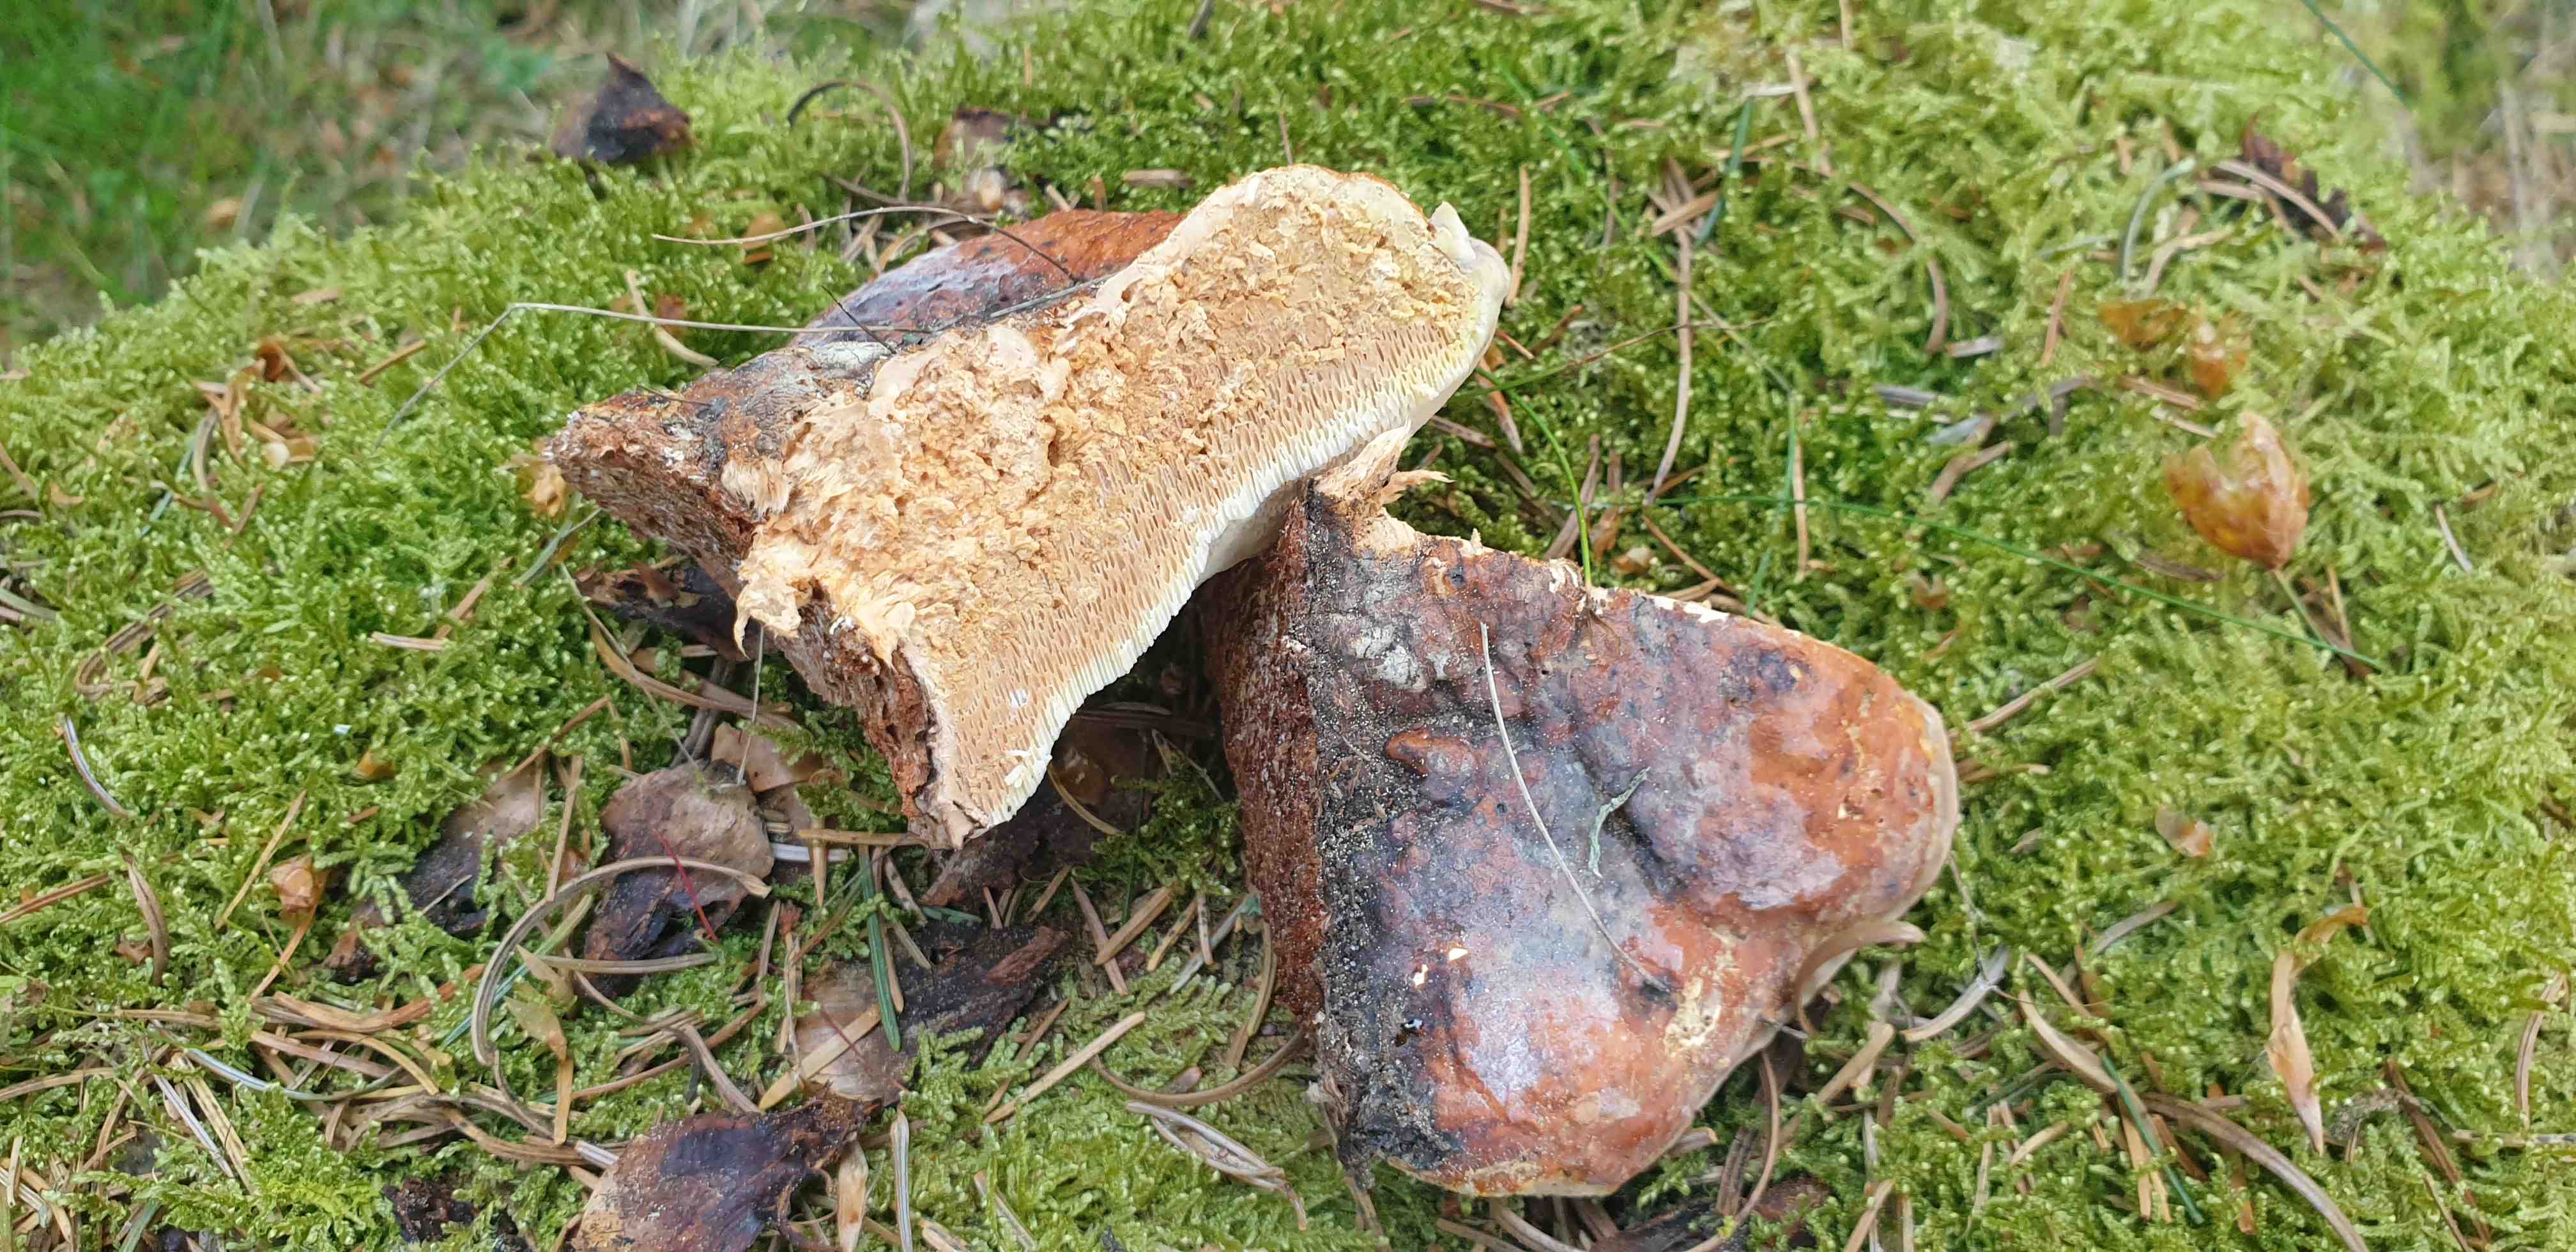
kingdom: Fungi
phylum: Basidiomycota
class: Agaricomycetes
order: Polyporales
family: Fomitopsidaceae
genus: Fomitopsis
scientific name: Fomitopsis pinicola
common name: randbæltet hovporesvamp
